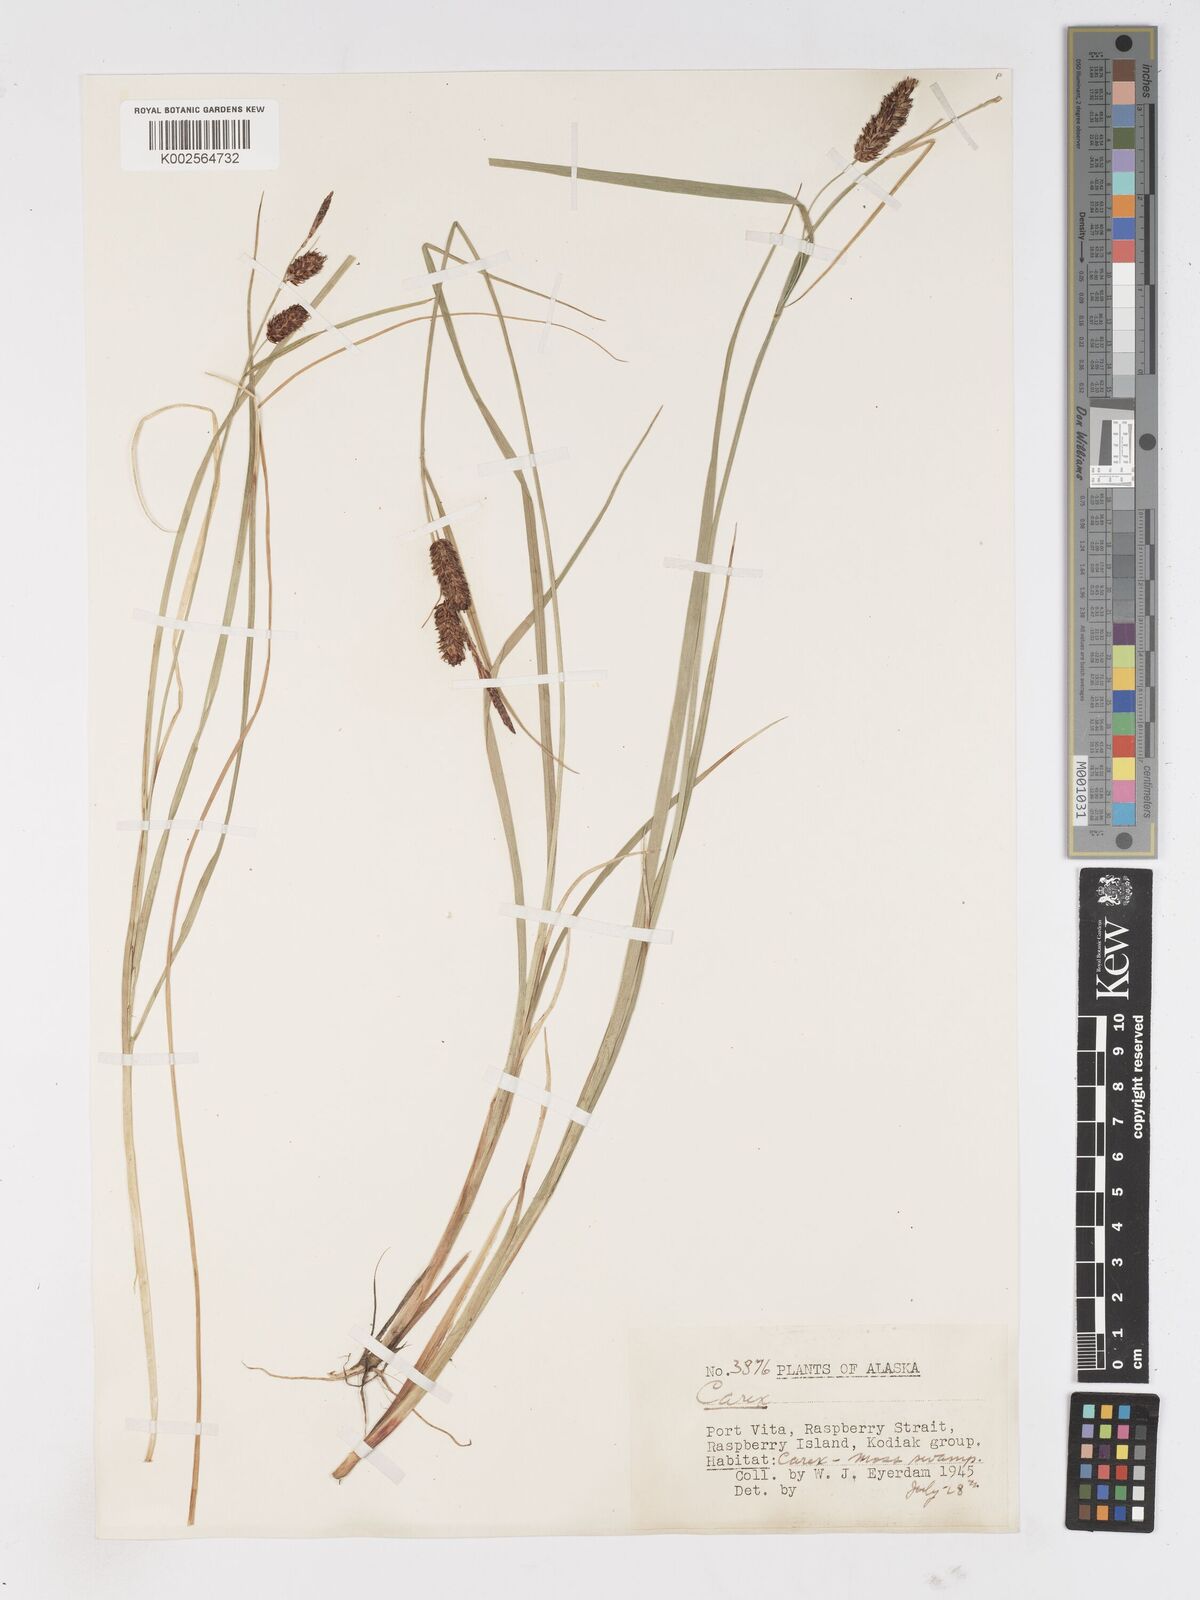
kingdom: Plantae
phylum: Tracheophyta
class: Liliopsida
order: Poales
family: Cyperaceae
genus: Carex
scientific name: Carex
